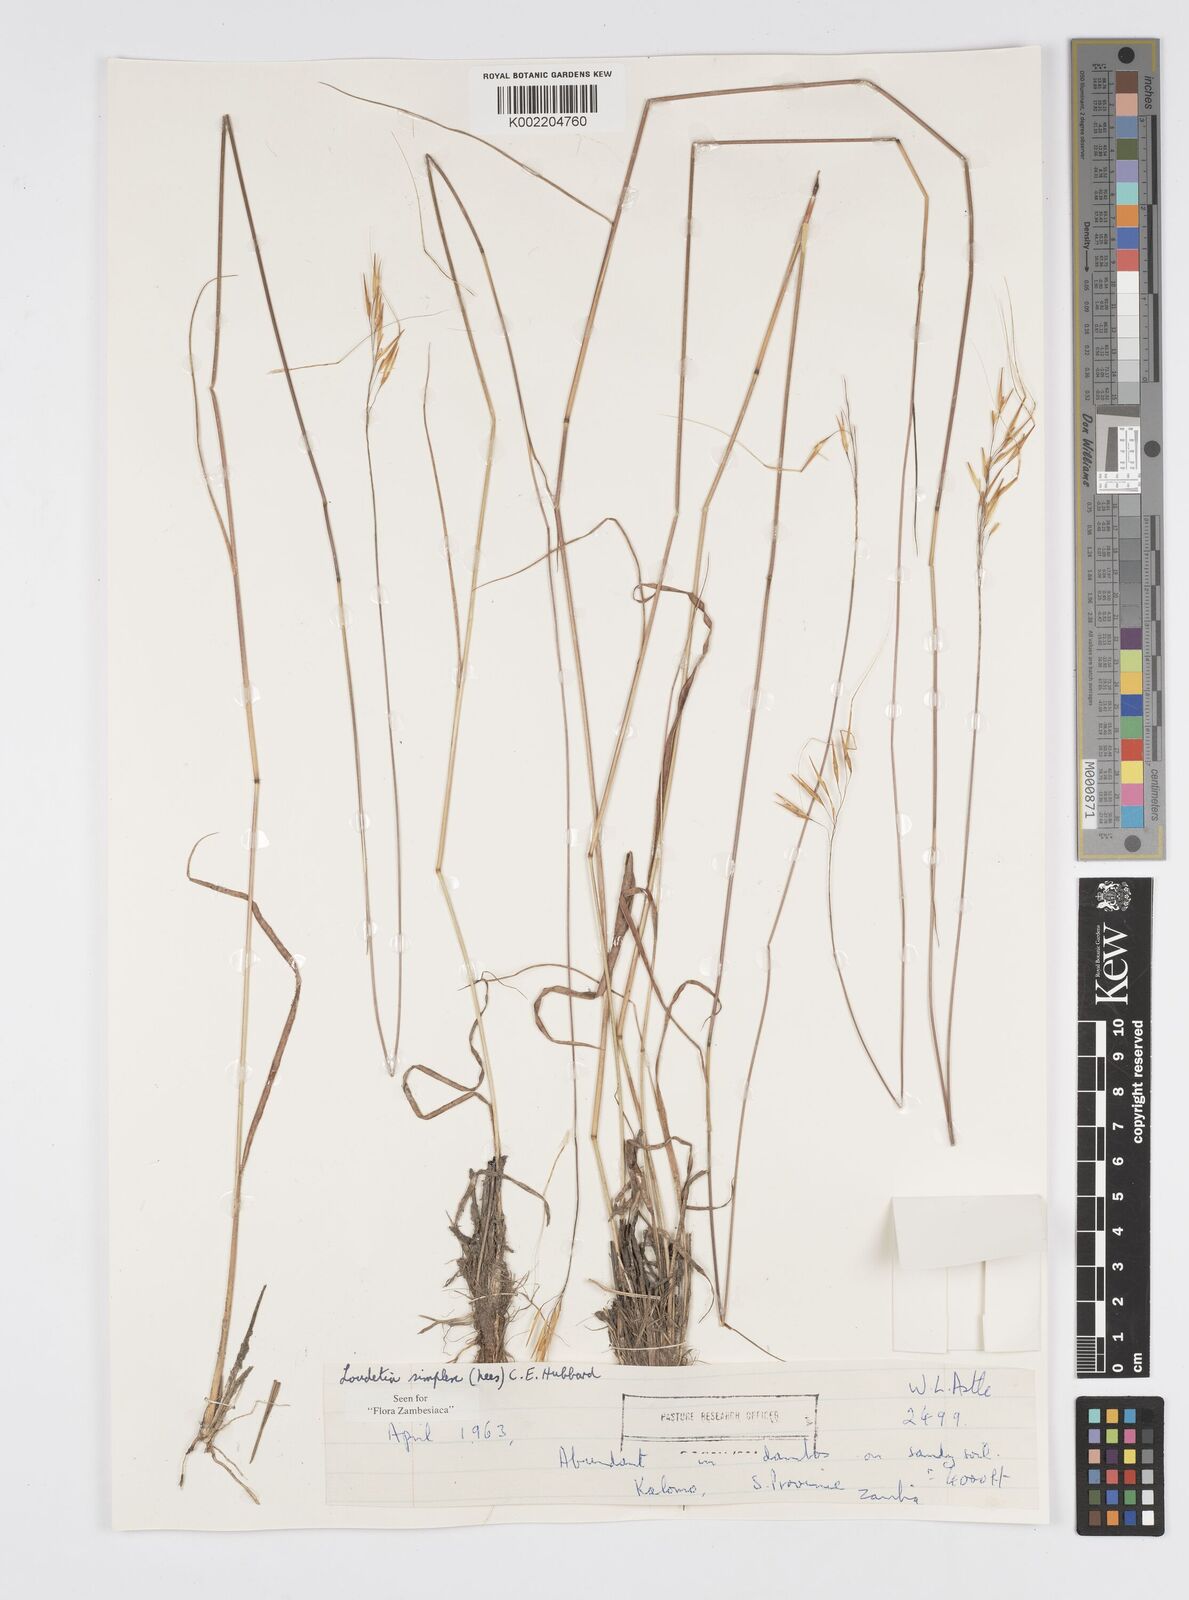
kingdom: Plantae
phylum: Tracheophyta
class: Liliopsida
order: Poales
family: Poaceae
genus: Loudetia
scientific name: Loudetia simplex
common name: Common russet grass
